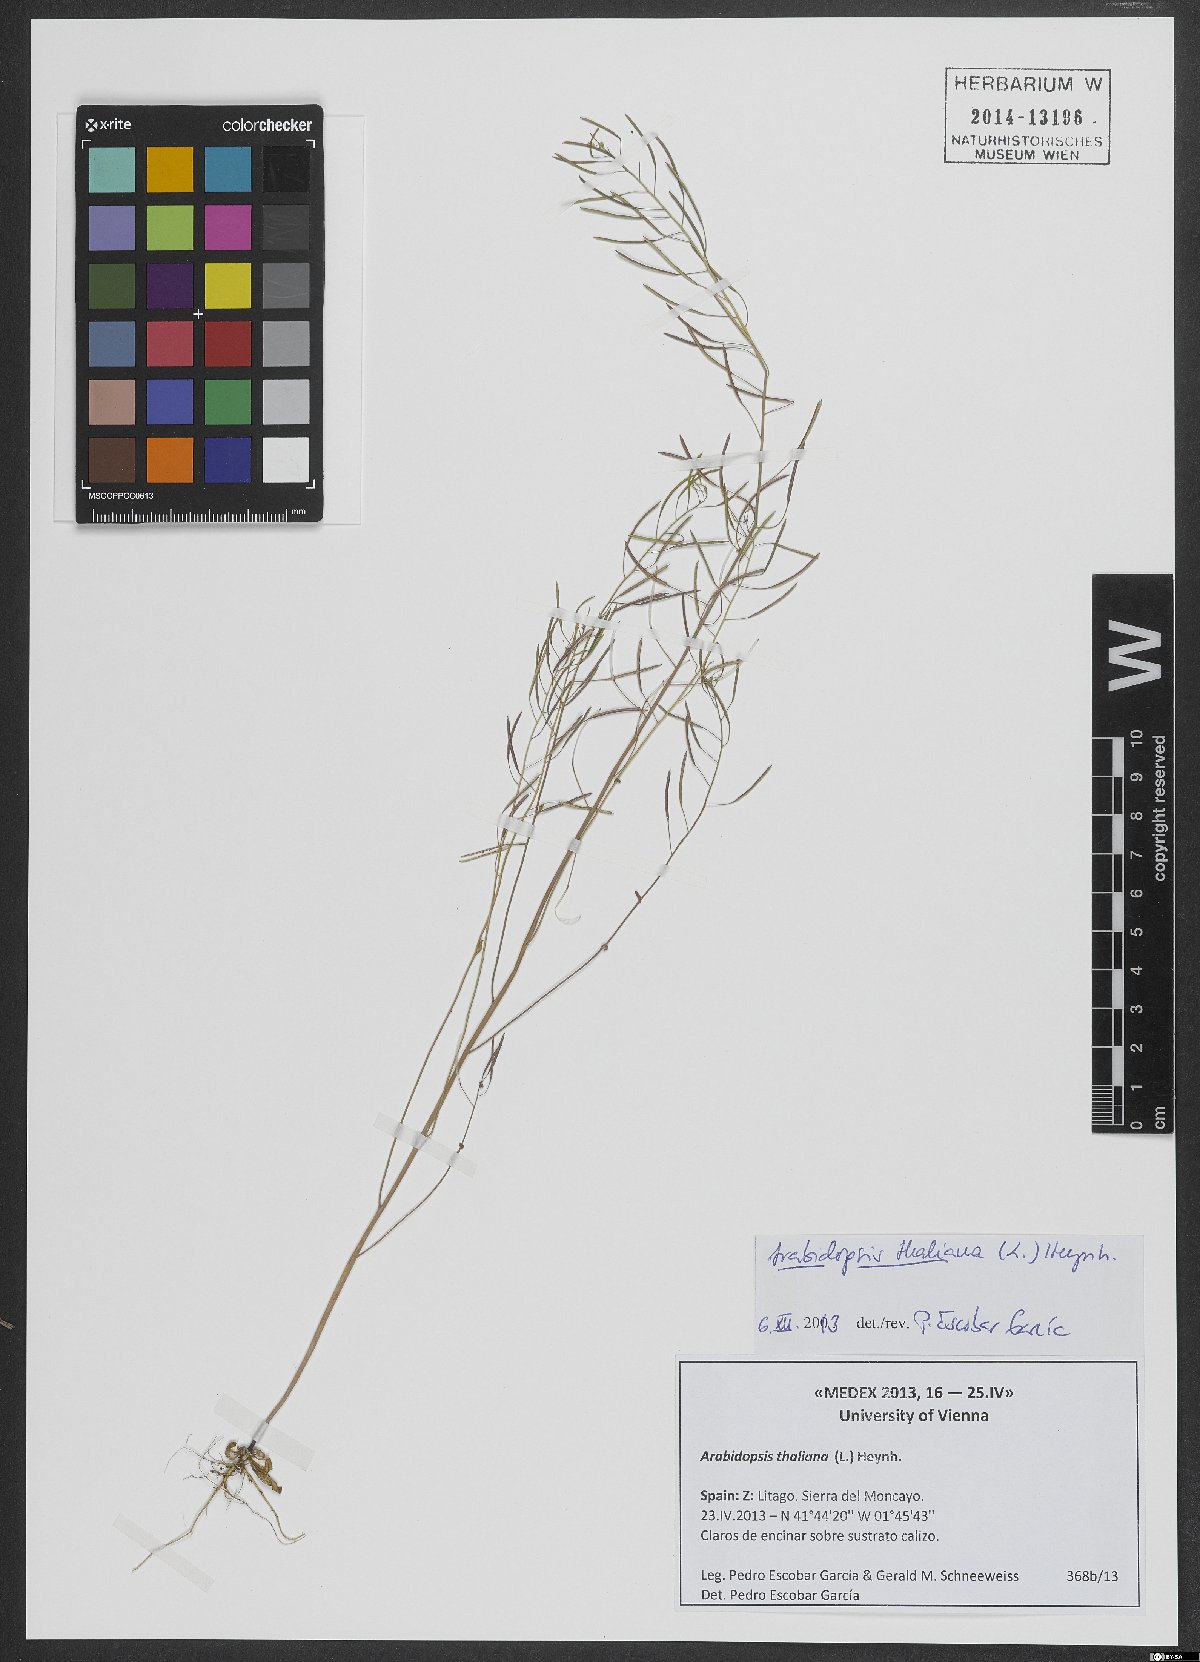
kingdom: Plantae
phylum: Tracheophyta
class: Magnoliopsida
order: Brassicales
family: Brassicaceae
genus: Arabidopsis
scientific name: Arabidopsis thaliana
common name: Thale cress
